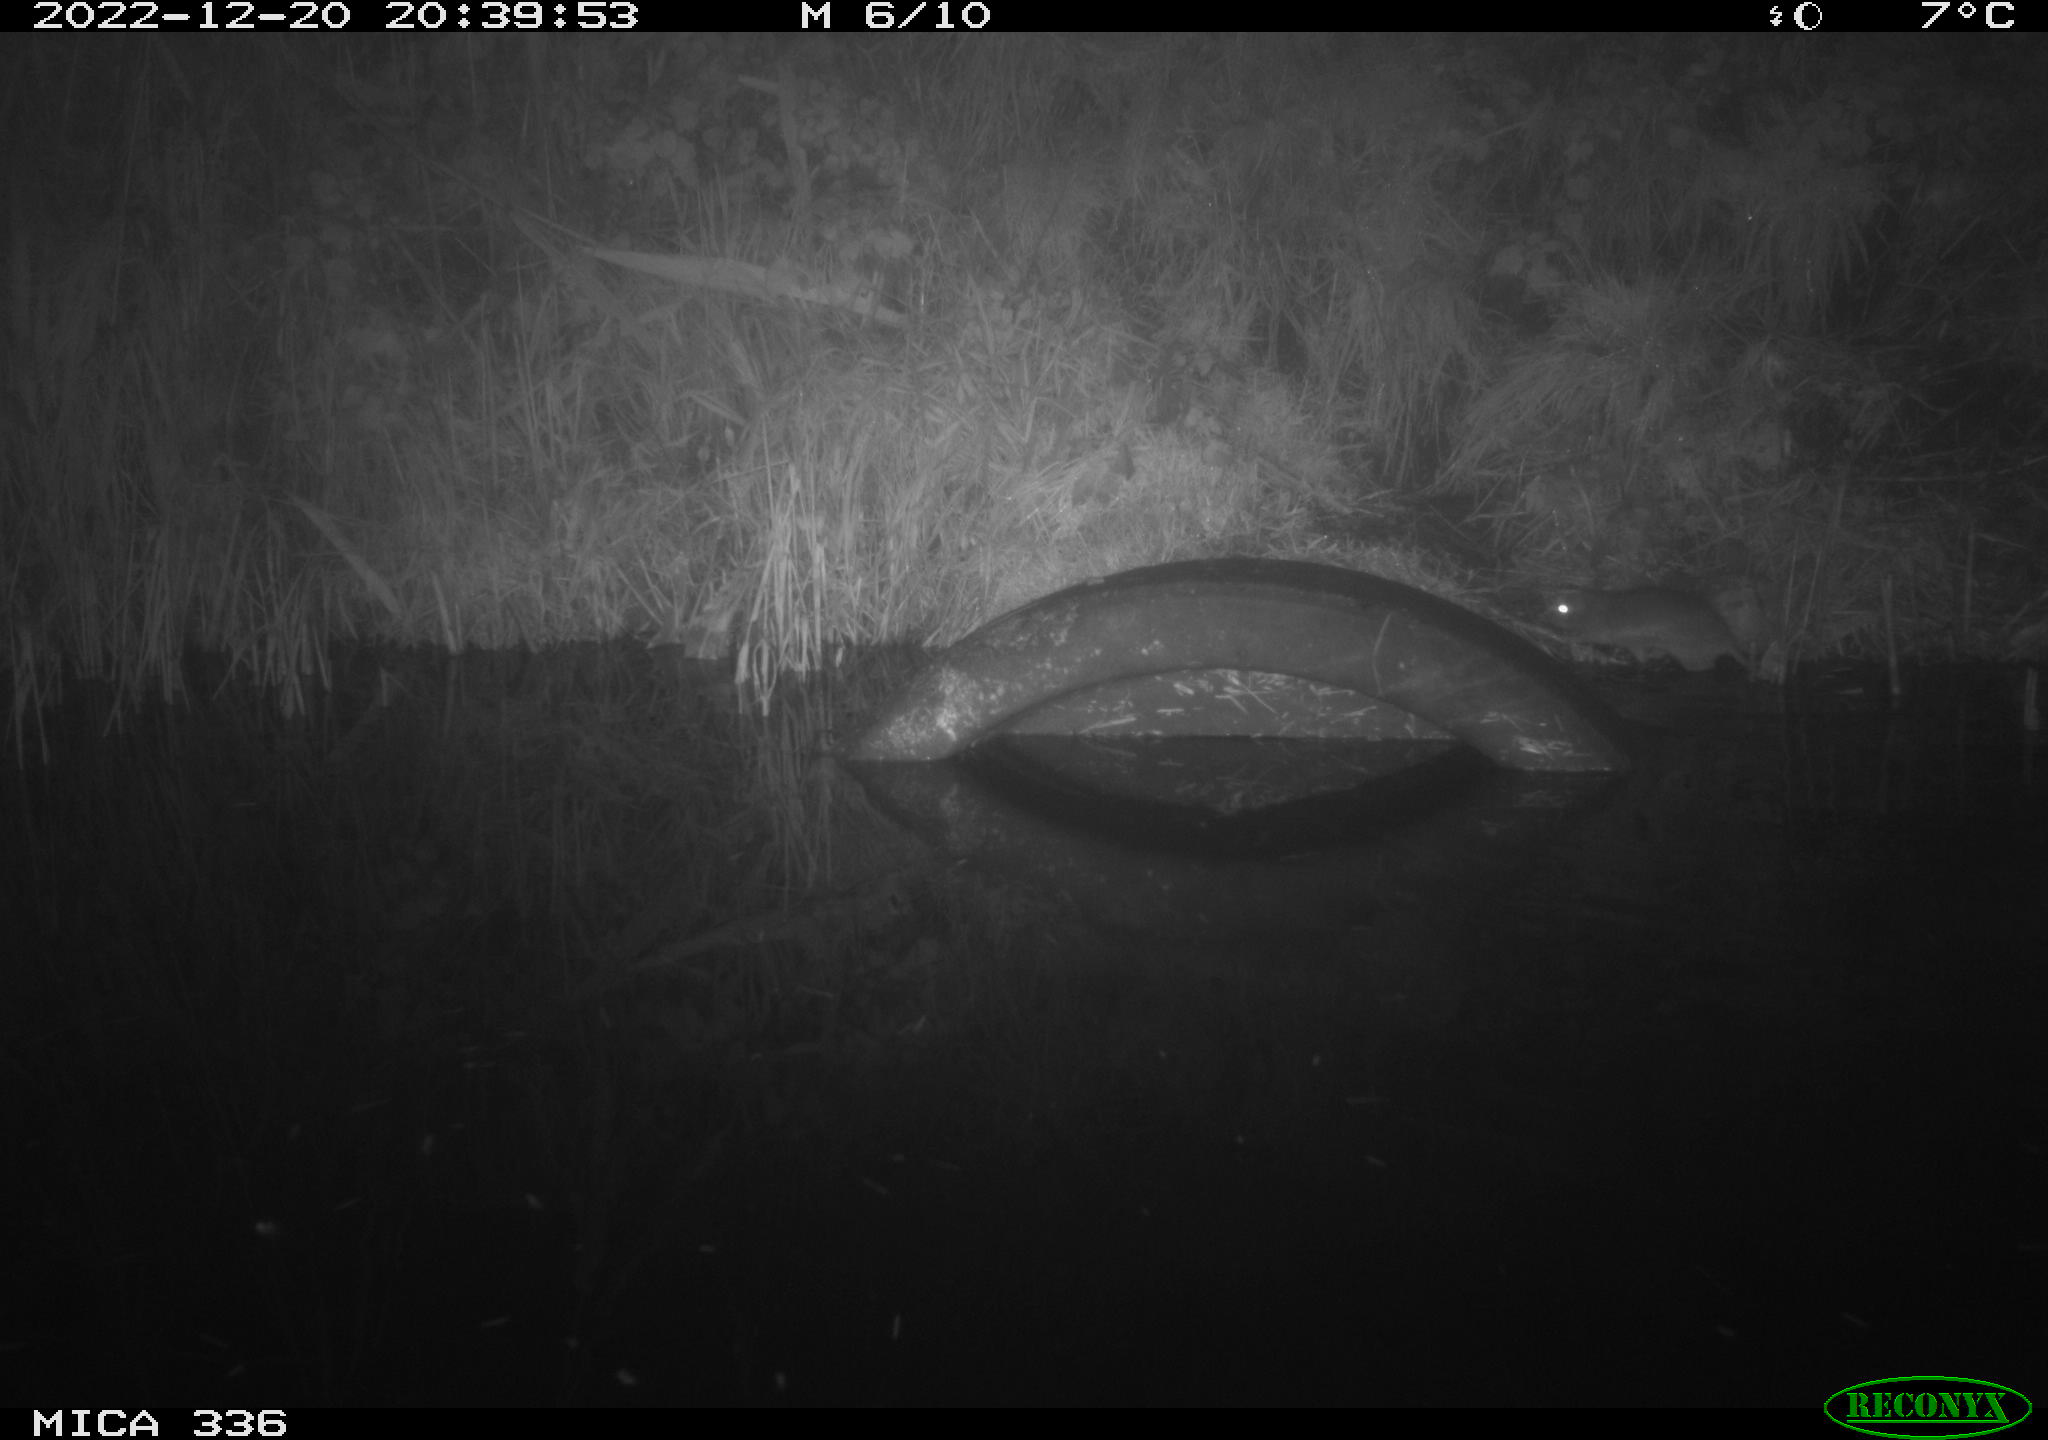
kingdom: Animalia
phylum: Chordata
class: Mammalia
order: Rodentia
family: Muridae
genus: Rattus
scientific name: Rattus norvegicus
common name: Brown rat
